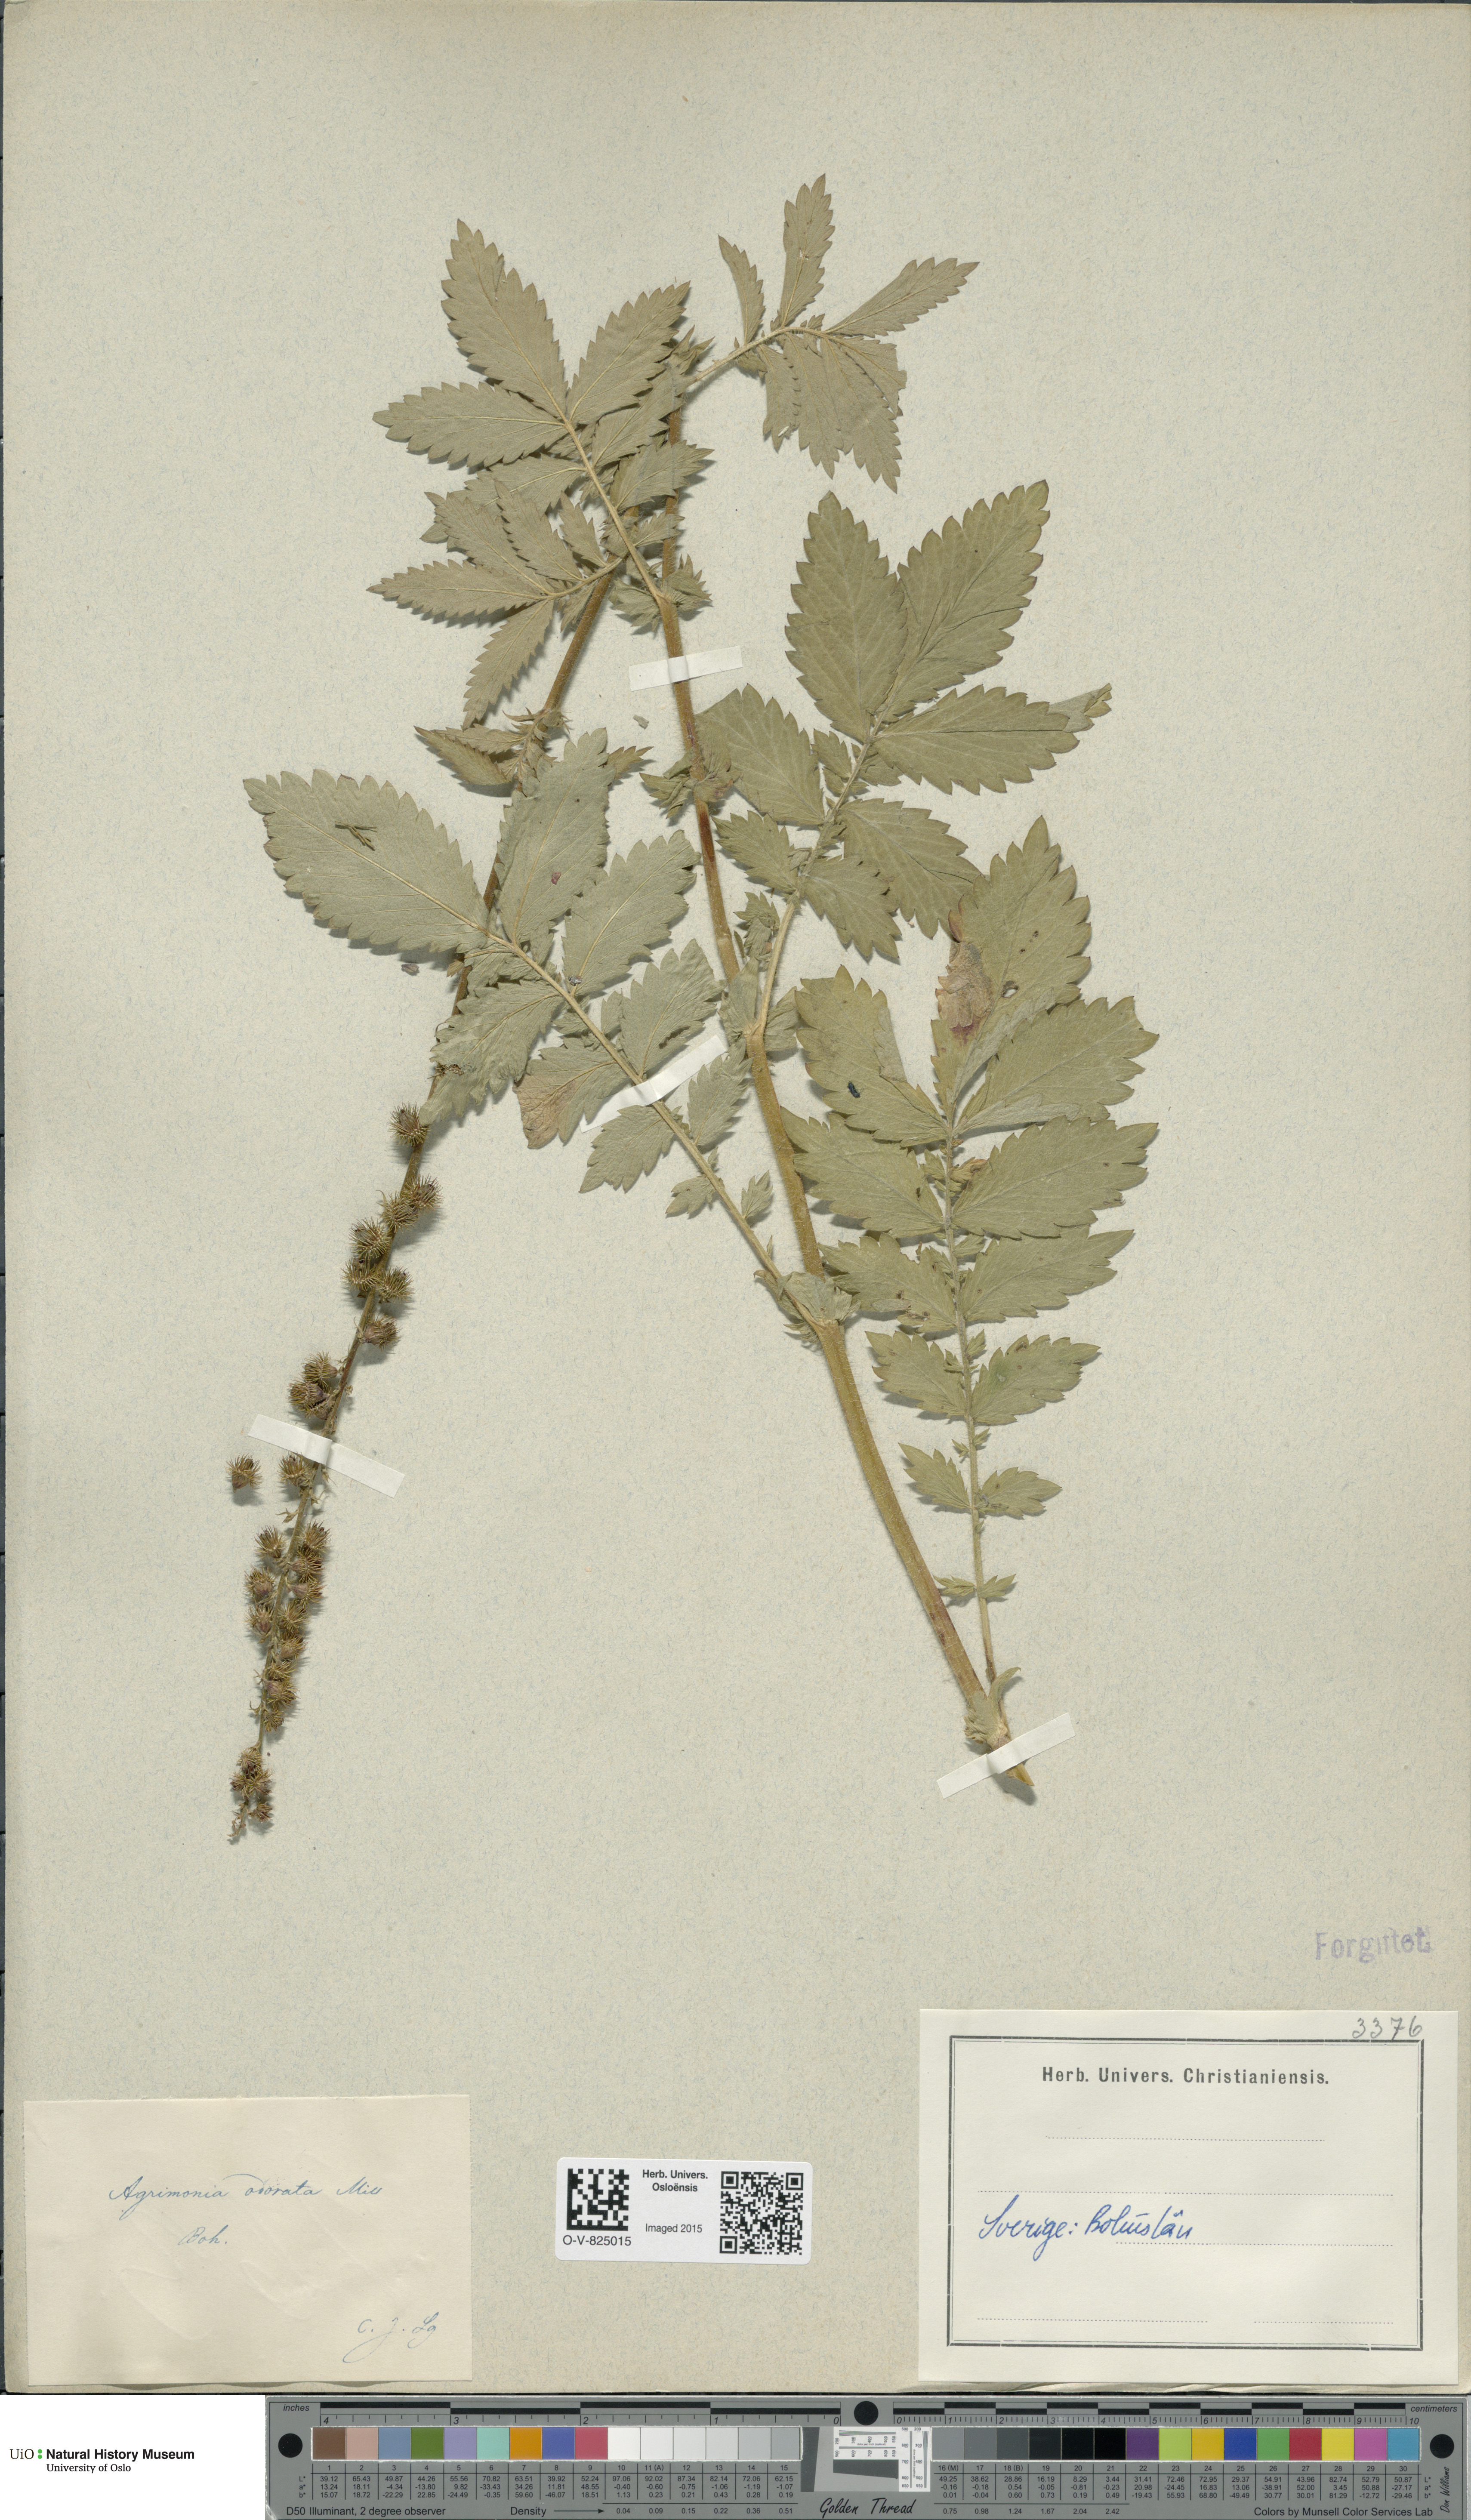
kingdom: Plantae
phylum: Tracheophyta
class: Magnoliopsida
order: Rosales
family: Rosaceae
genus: Agrimonia
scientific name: Agrimonia procera
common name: Fragrant agrimony
